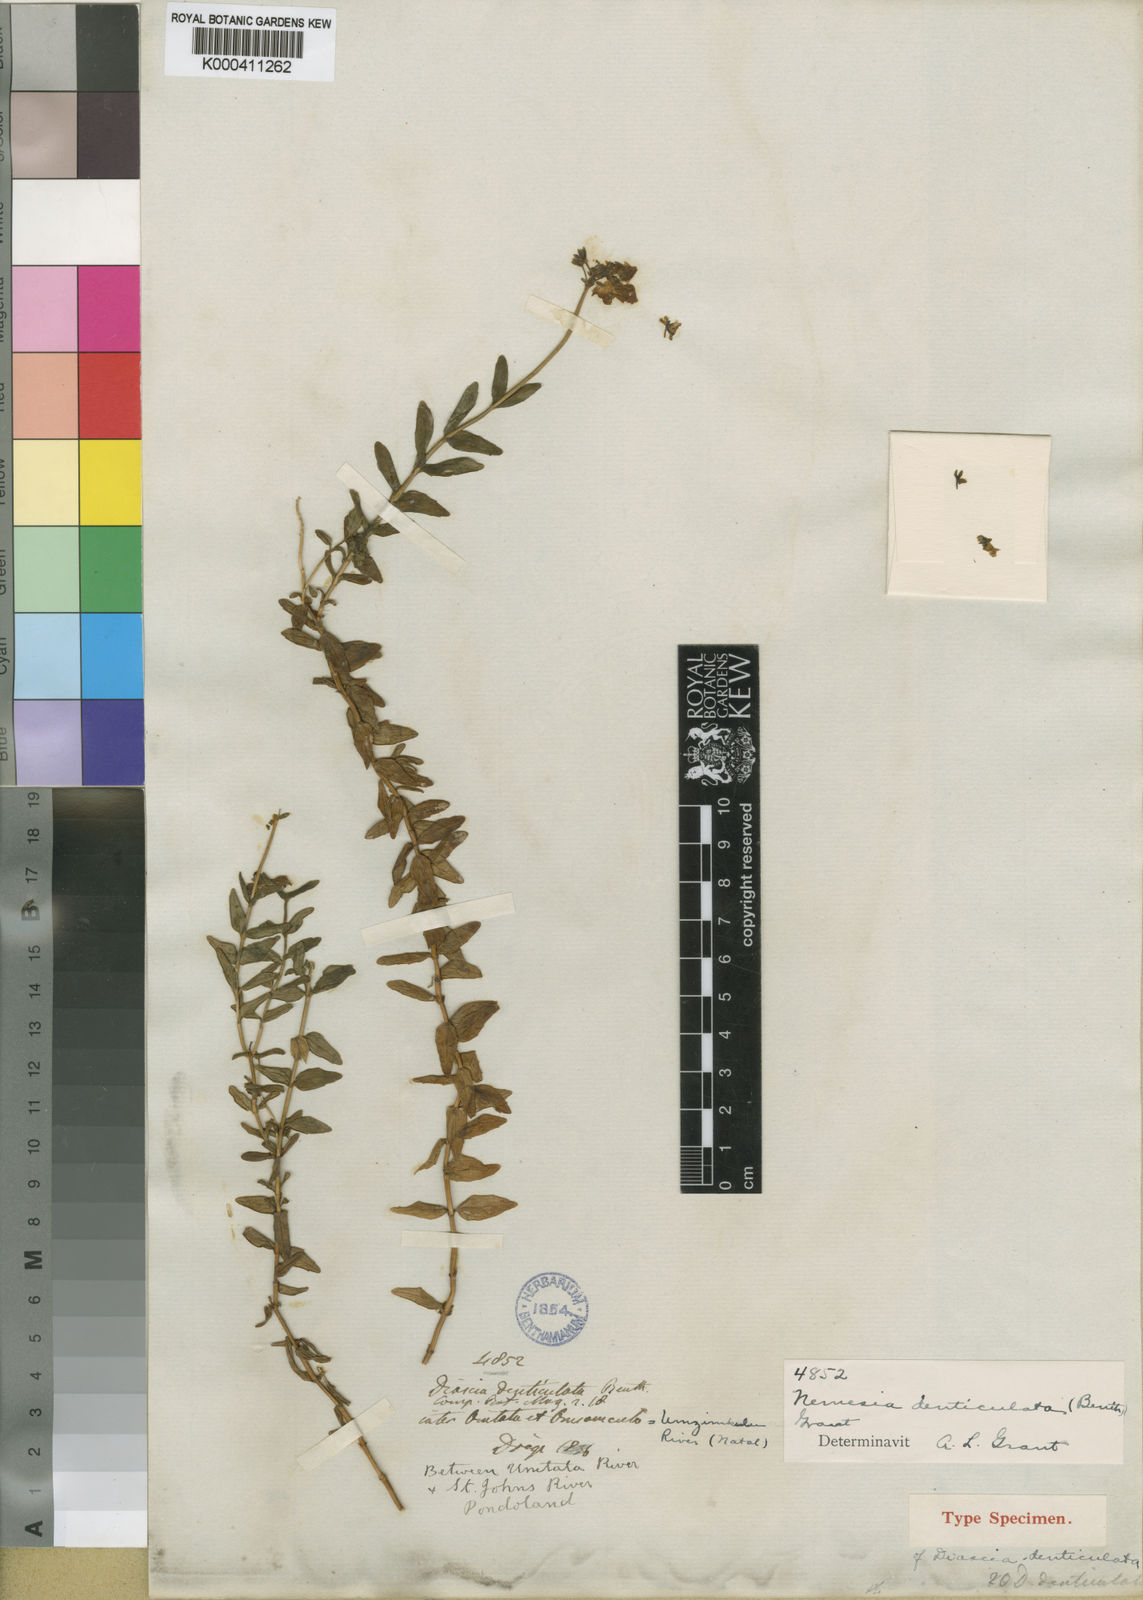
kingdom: Plantae
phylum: Tracheophyta
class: Magnoliopsida
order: Lamiales
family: Scrophulariaceae
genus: Nemesia
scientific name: Nemesia denticulata
